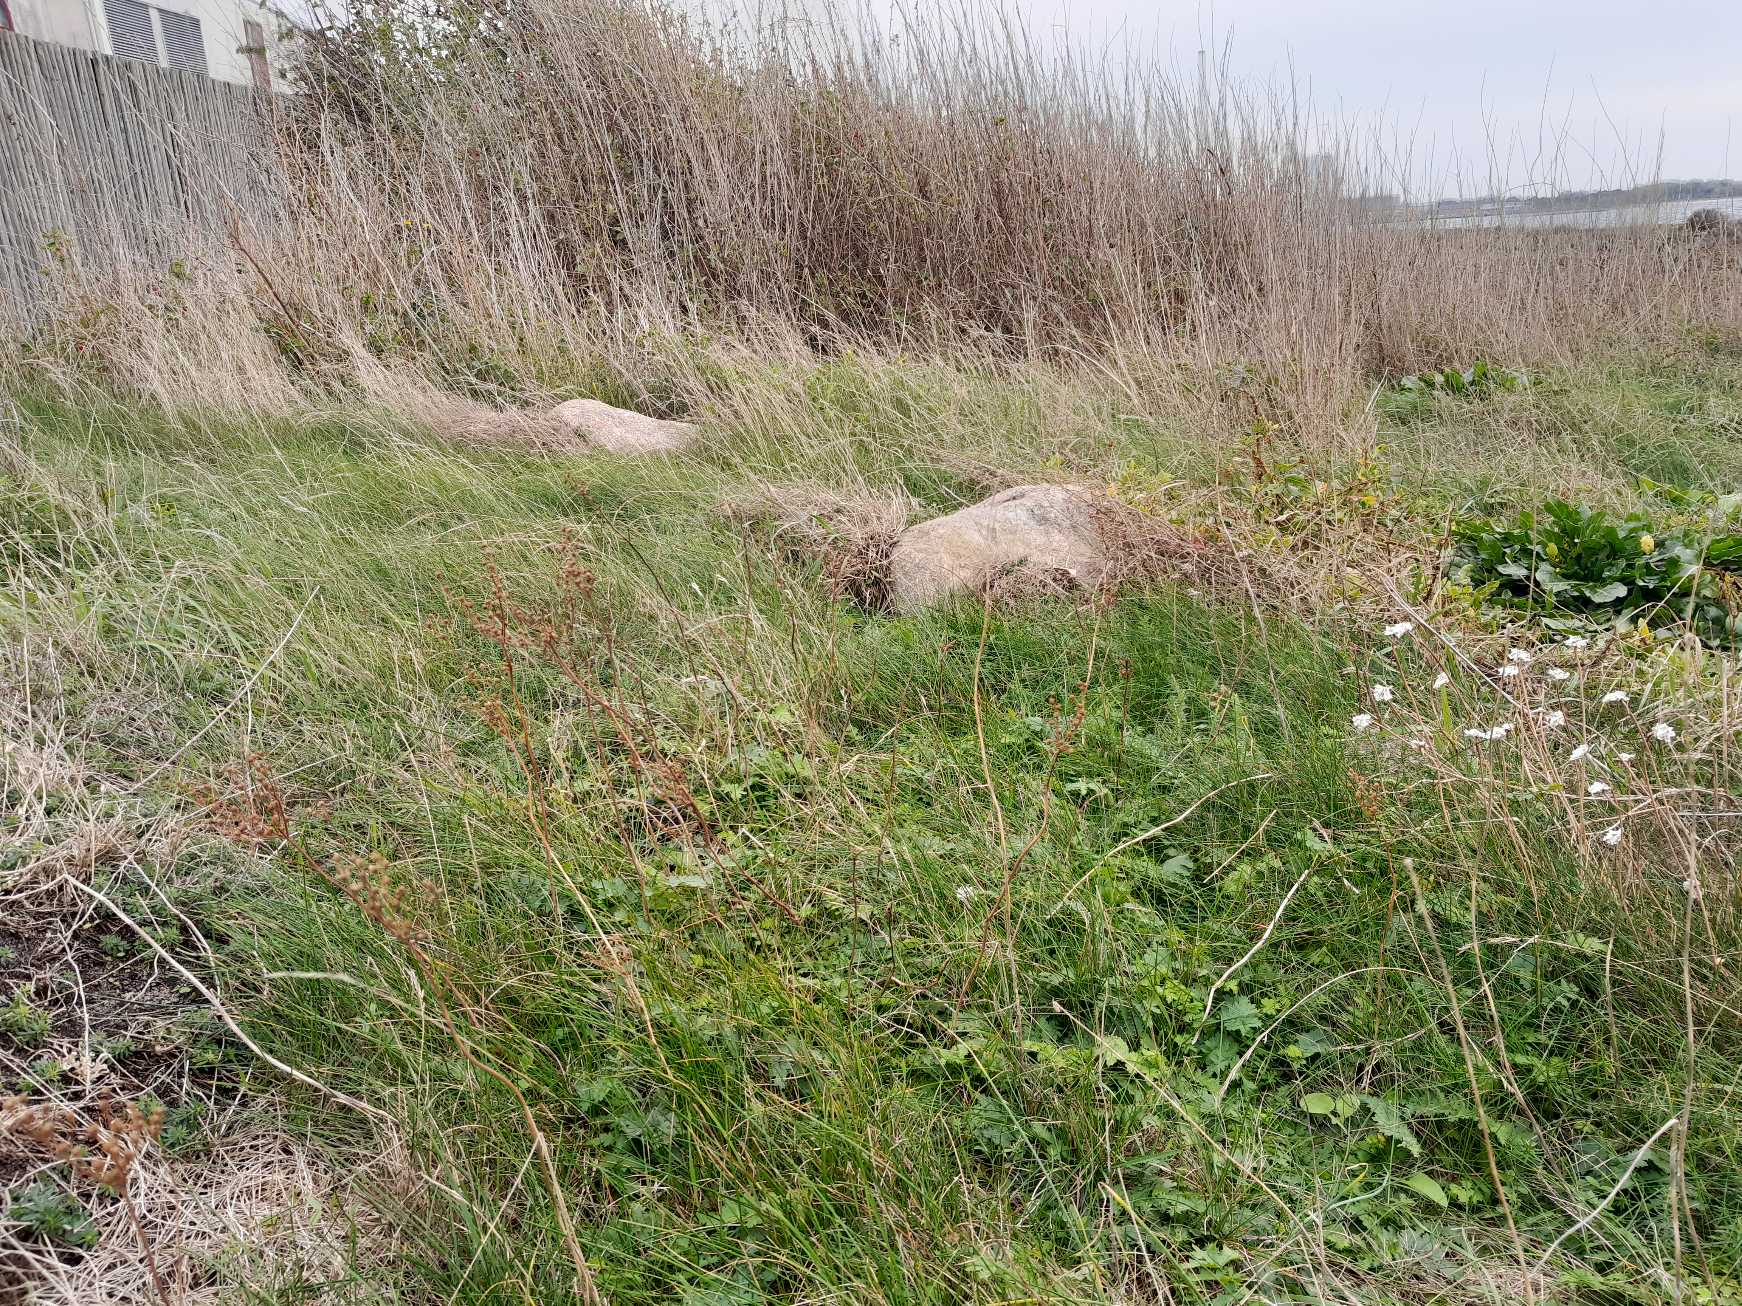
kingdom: Plantae
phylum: Tracheophyta
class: Magnoliopsida
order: Rosales
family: Rosaceae
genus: Filipendula
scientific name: Filipendula vulgaris
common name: Knoldet mjødurt
